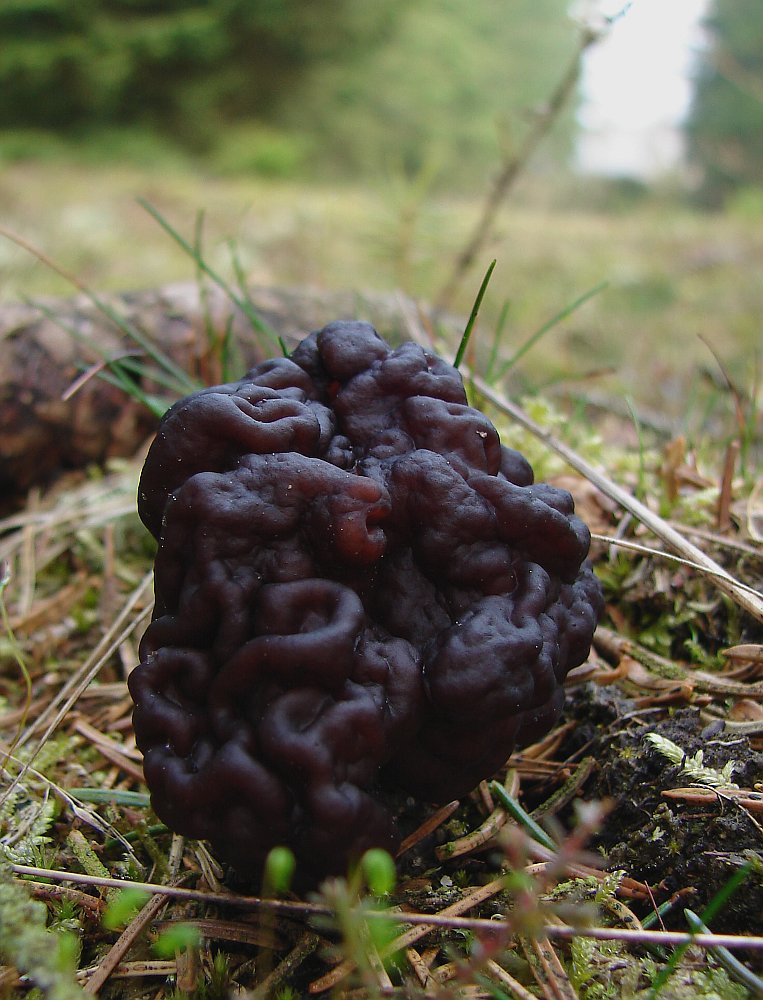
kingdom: Fungi
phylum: Ascomycota
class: Pezizomycetes
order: Pezizales
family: Discinaceae
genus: Gyromitra
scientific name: Gyromitra esculenta
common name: ægte stenmorkel
